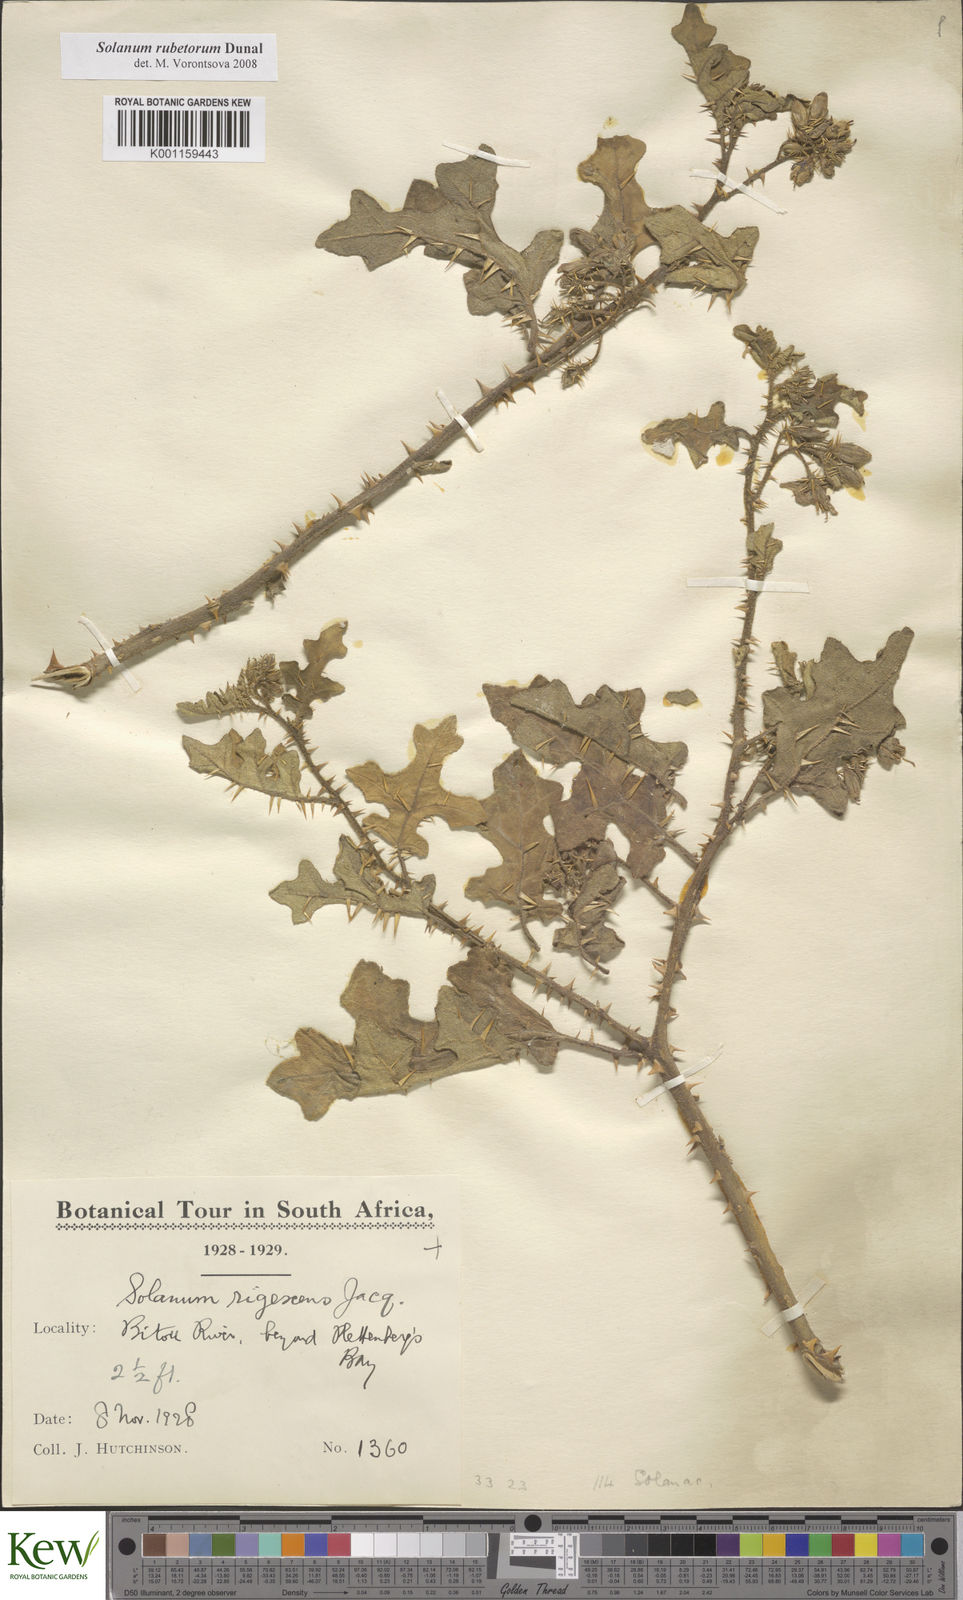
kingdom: Plantae
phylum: Tracheophyta
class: Magnoliopsida
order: Solanales
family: Solanaceae
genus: Solanum
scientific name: Solanum rubetorum
